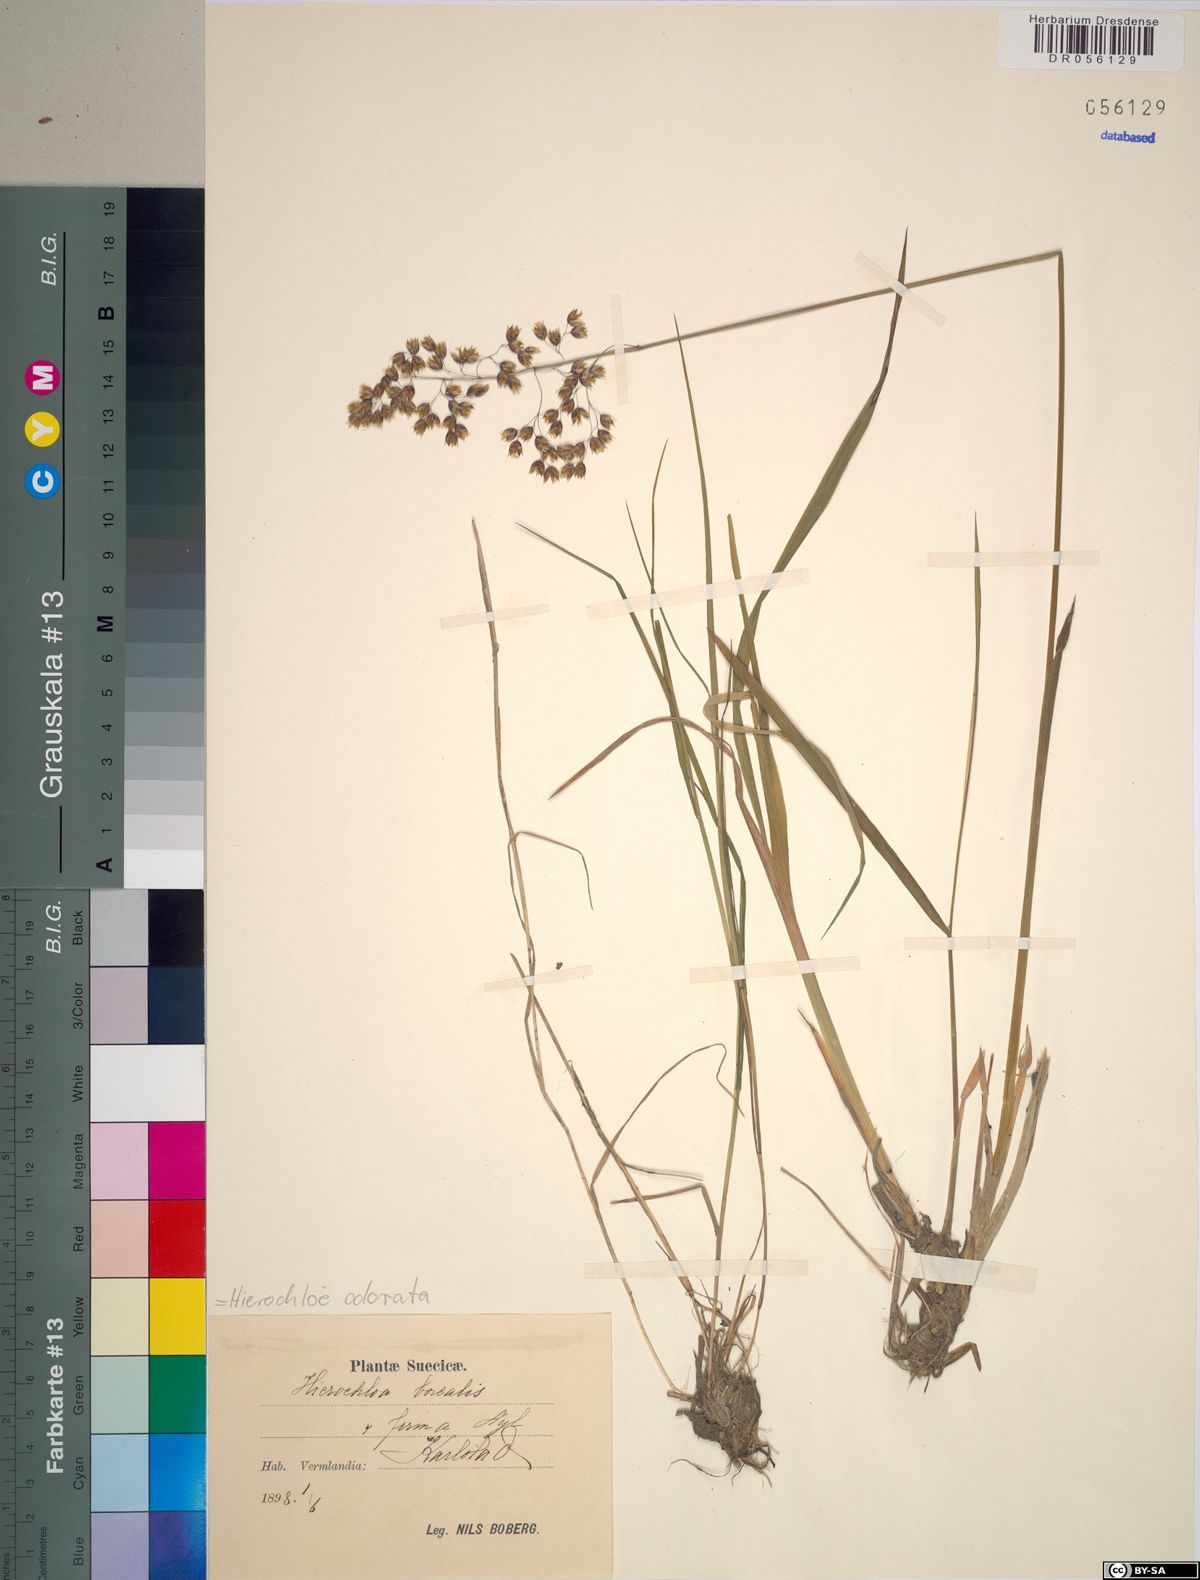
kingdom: Plantae
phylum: Tracheophyta
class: Liliopsida
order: Poales
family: Poaceae
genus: Anthoxanthum
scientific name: Anthoxanthum nitens
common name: Holy grass
